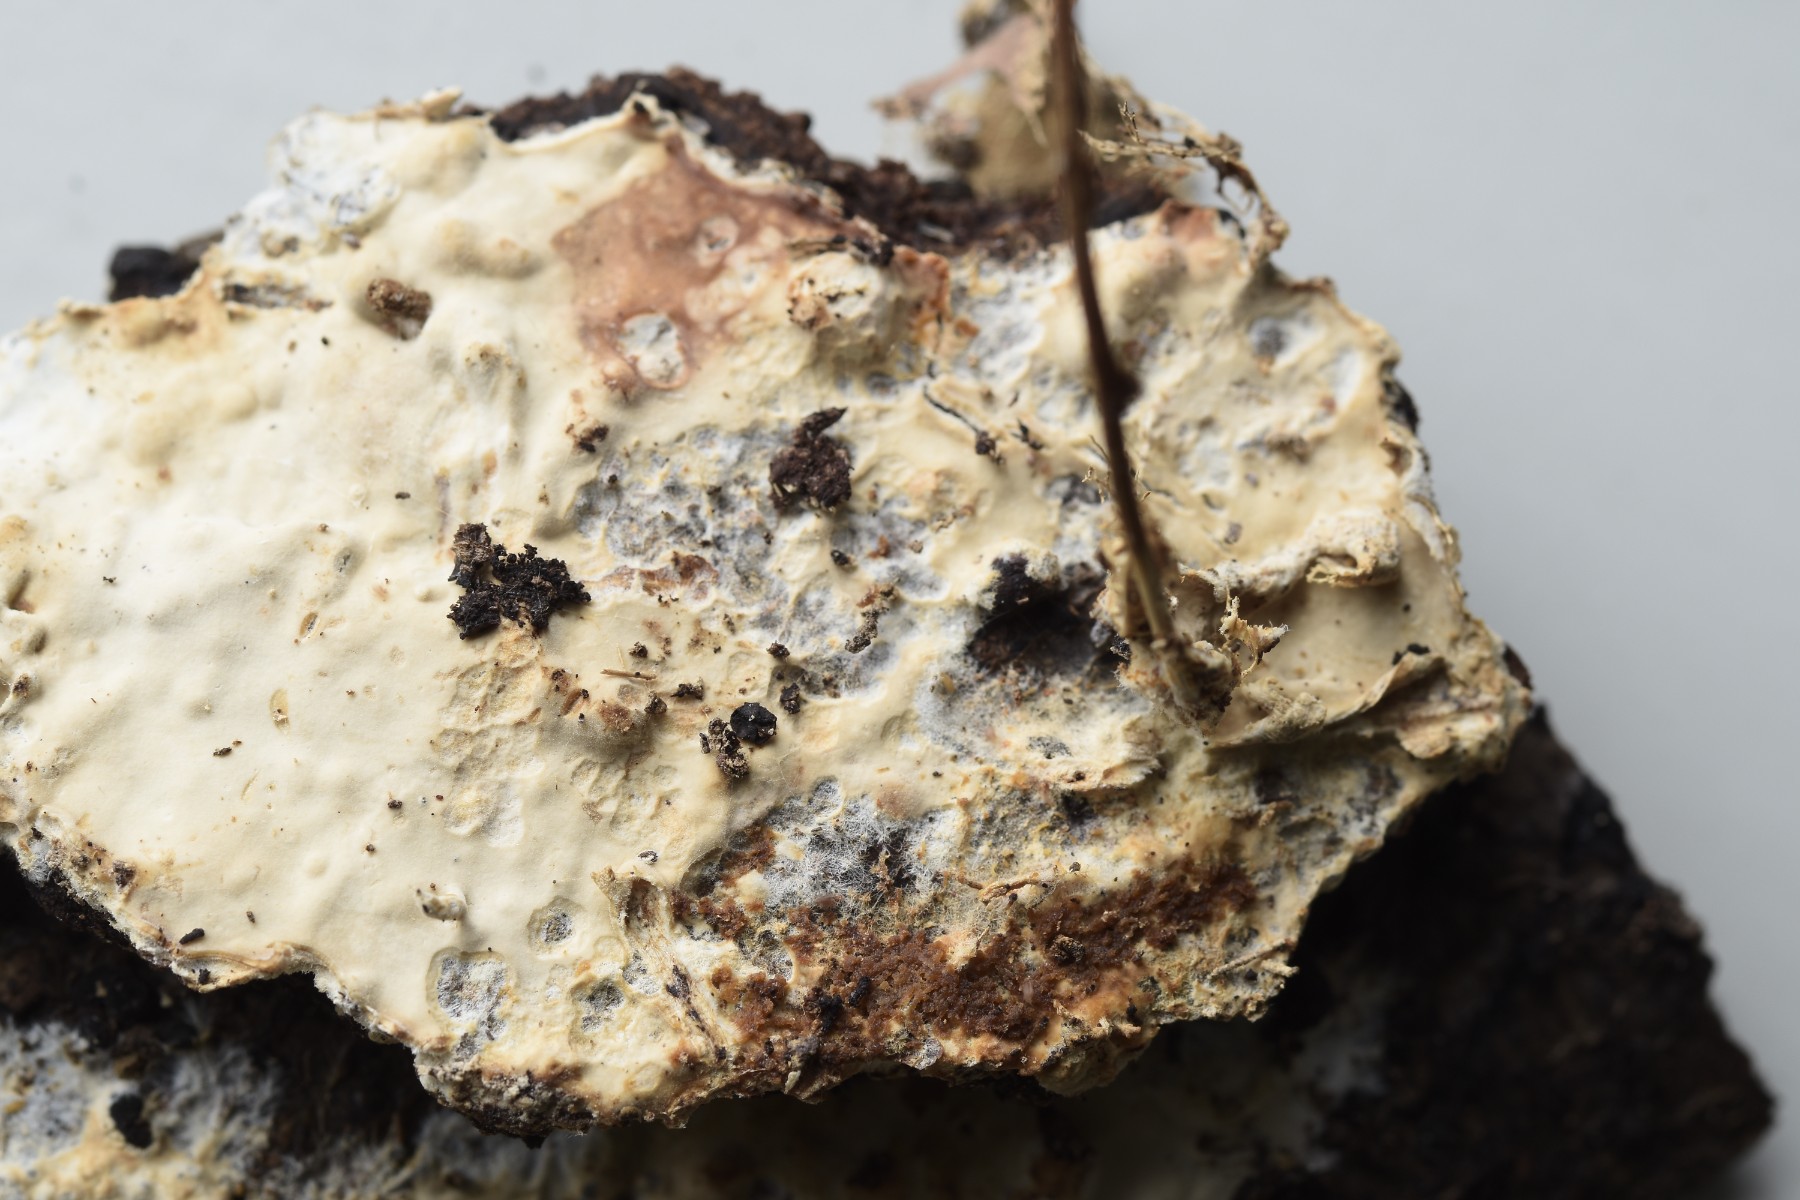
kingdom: Fungi
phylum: Basidiomycota
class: Agaricomycetes
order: Polyporales
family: Phanerochaetaceae
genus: Phanerochaete
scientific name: Phanerochaete velutina
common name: dunet randtråd
